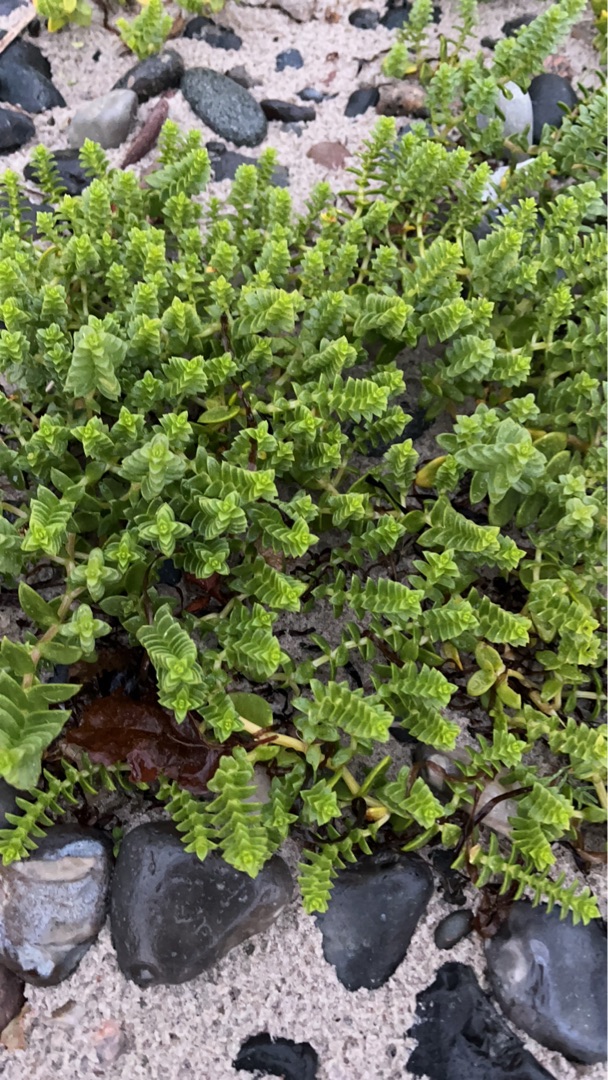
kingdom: Plantae
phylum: Tracheophyta
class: Magnoliopsida
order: Caryophyllales
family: Caryophyllaceae
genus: Honckenya
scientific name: Honckenya peploides
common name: Strandarve
